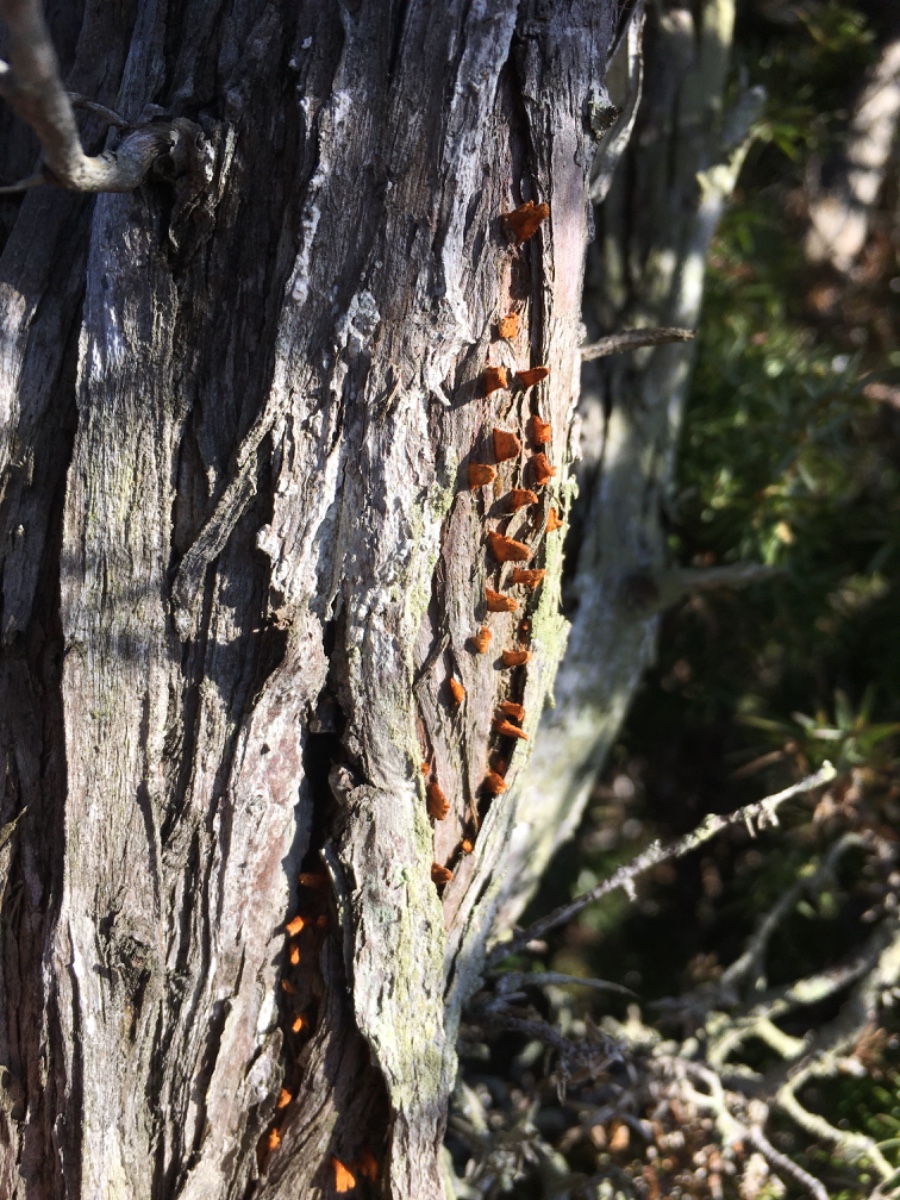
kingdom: Fungi
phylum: Basidiomycota
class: Pucciniomycetes
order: Pucciniales
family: Gymnosporangiaceae
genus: Gymnosporangium
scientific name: Gymnosporangium clavariiforme
